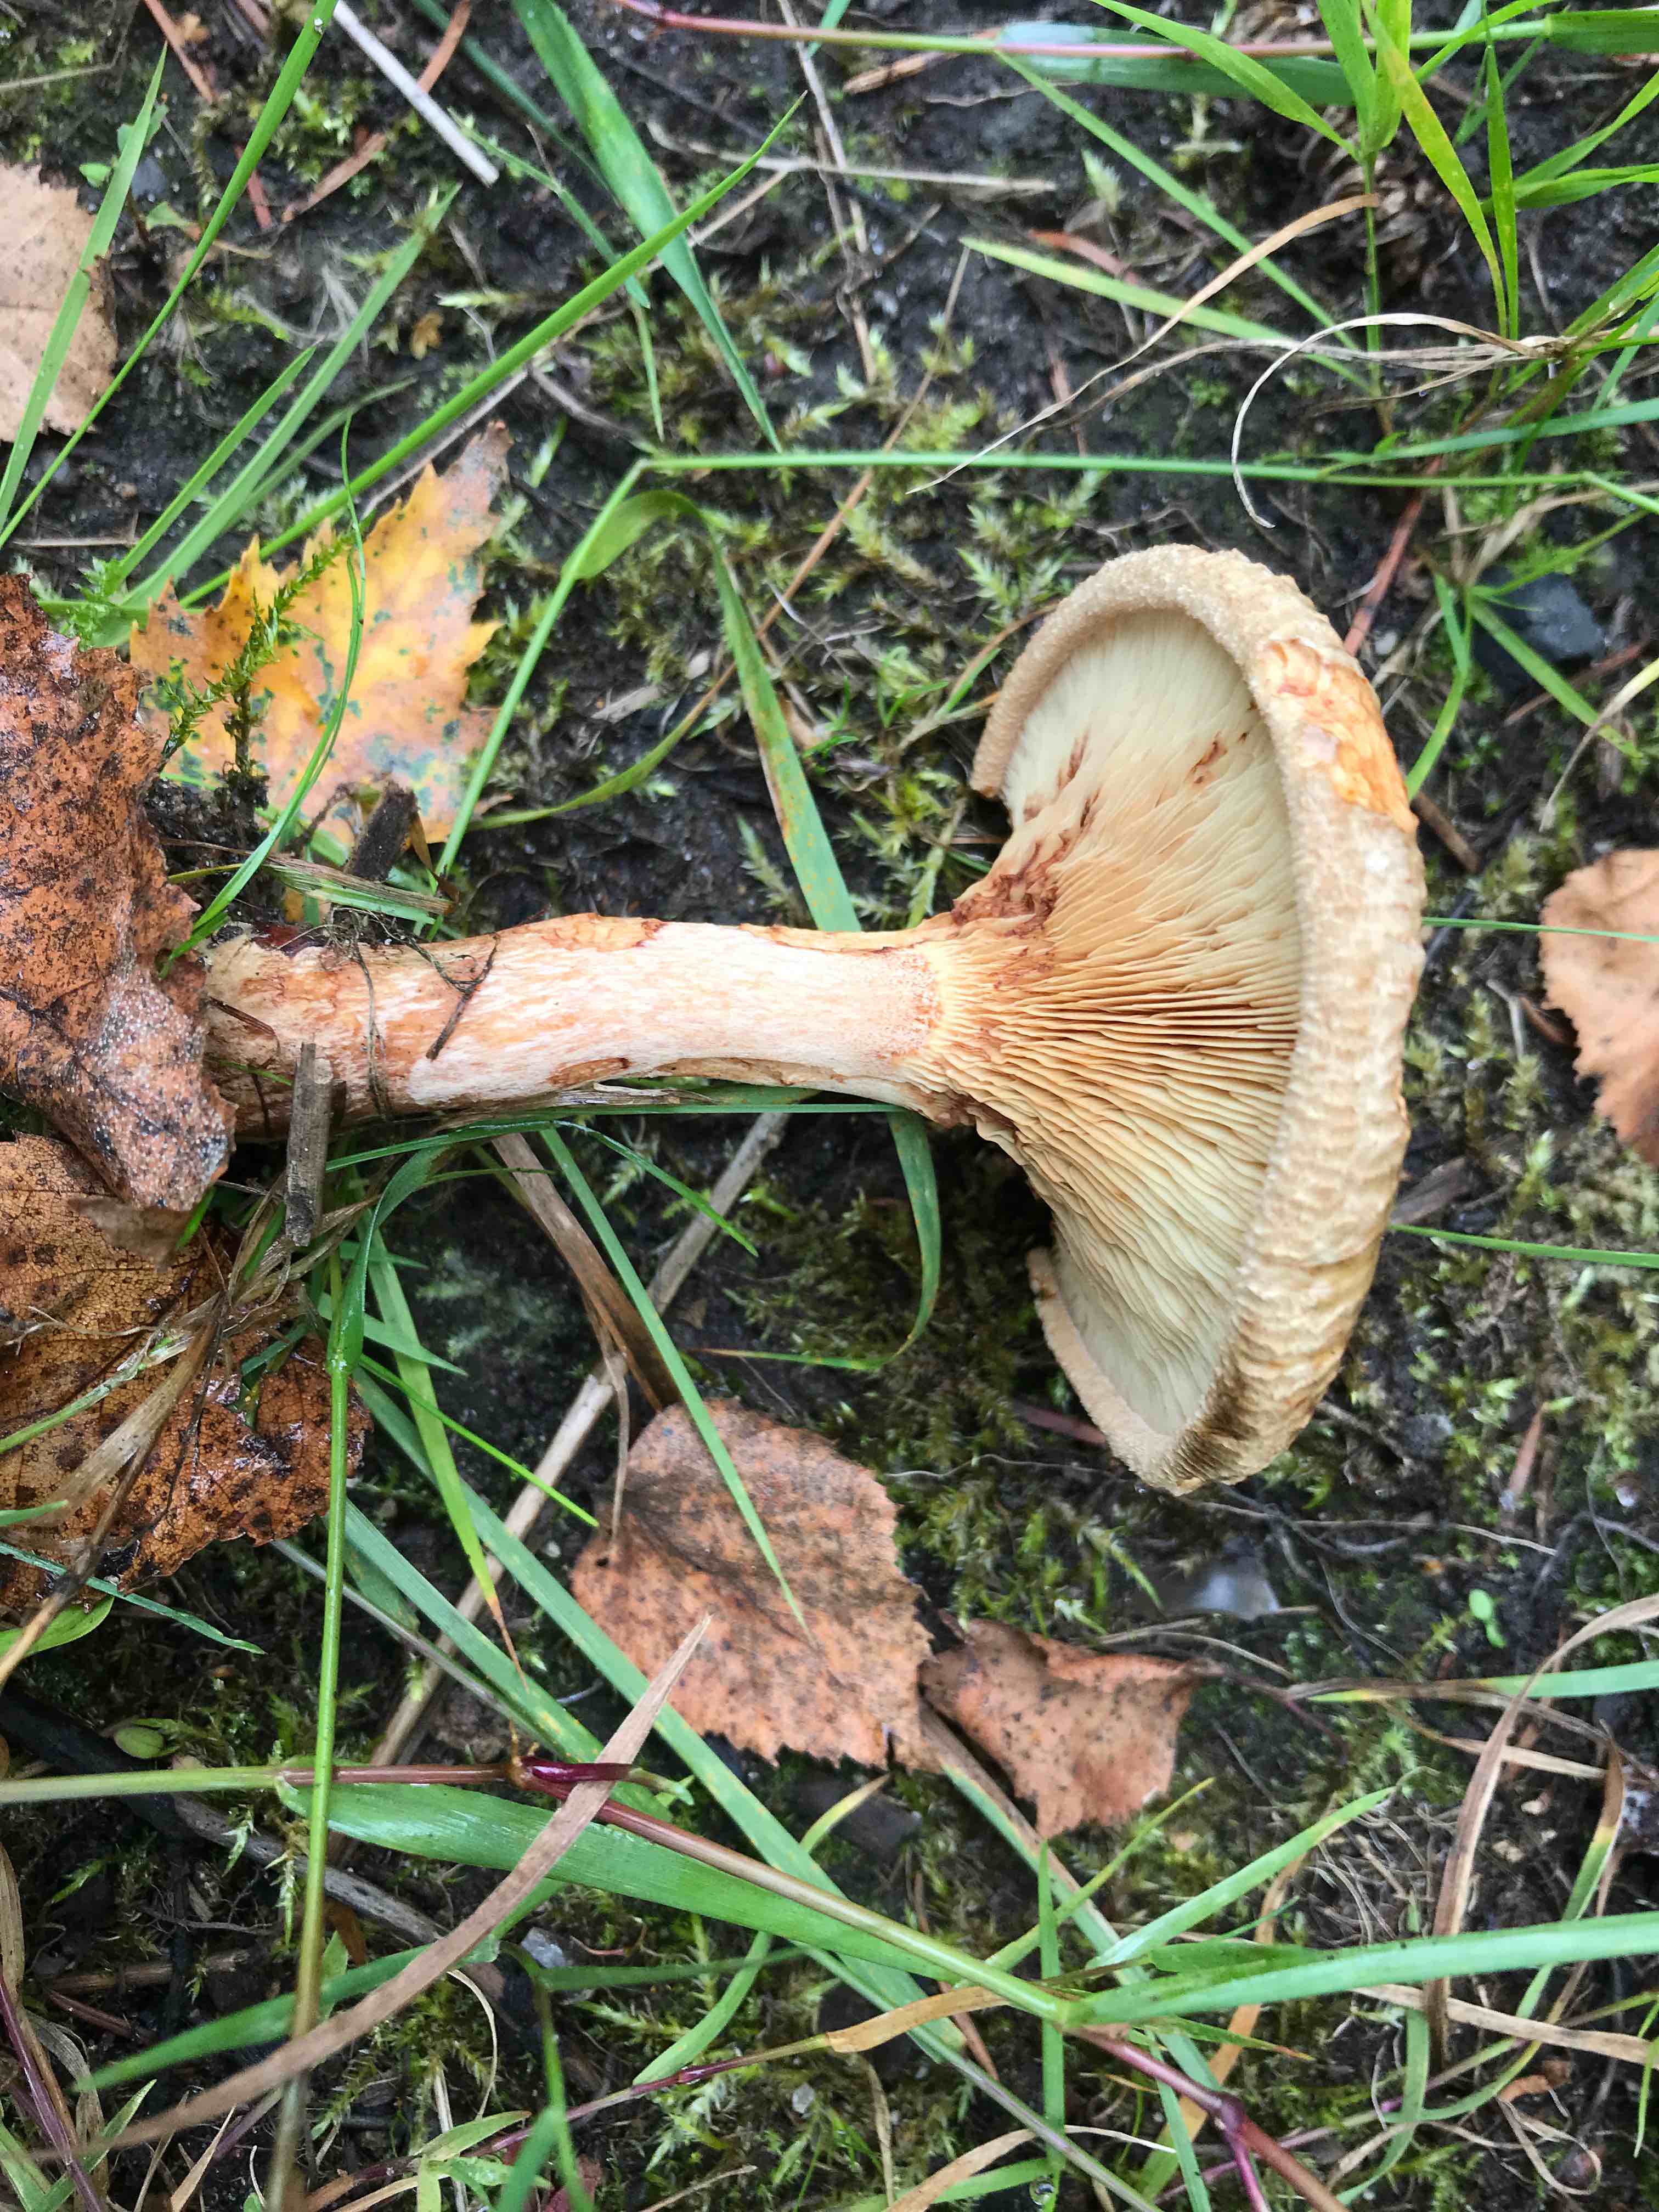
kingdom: Fungi
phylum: Basidiomycota
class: Agaricomycetes
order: Boletales
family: Paxillaceae
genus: Paxillus
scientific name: Paxillus involutus
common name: almindelig netbladhat
